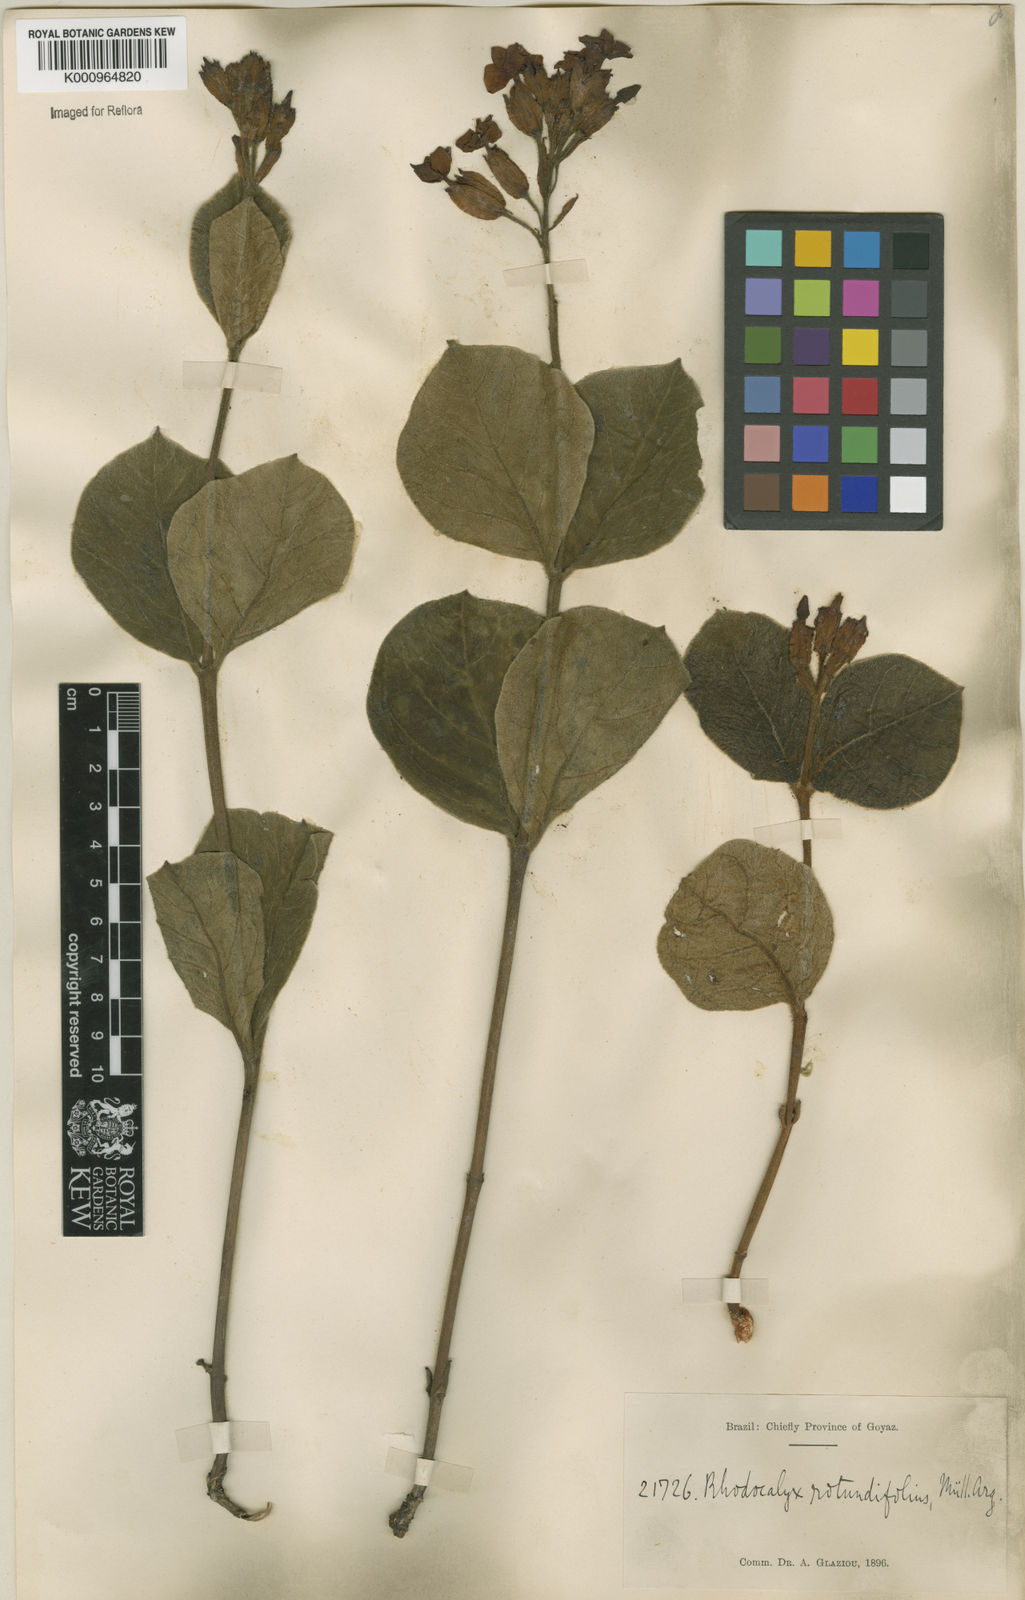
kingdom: Plantae
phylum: Tracheophyta
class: Magnoliopsida
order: Gentianales
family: Apocynaceae
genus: Rhodocalyx
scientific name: Rhodocalyx
